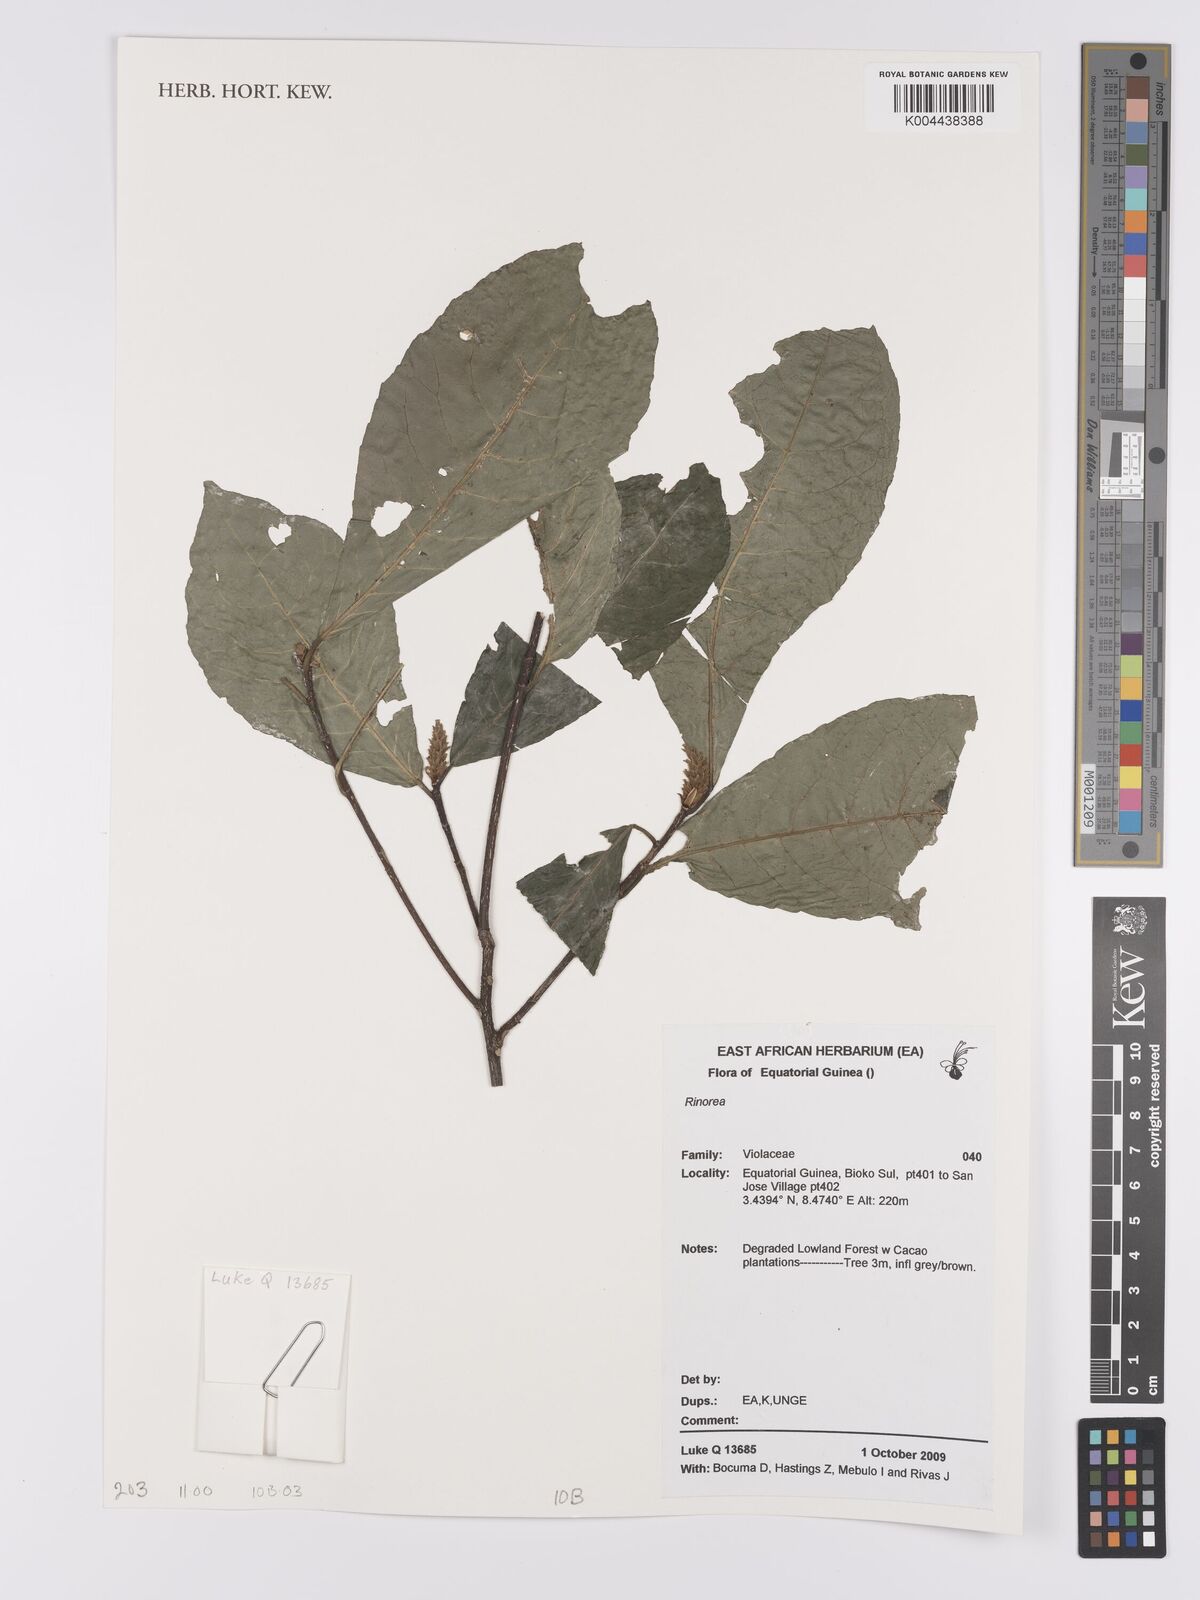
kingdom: Plantae
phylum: Tracheophyta
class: Magnoliopsida
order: Malpighiales
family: Violaceae
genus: Rinorea
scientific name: Rinorea
